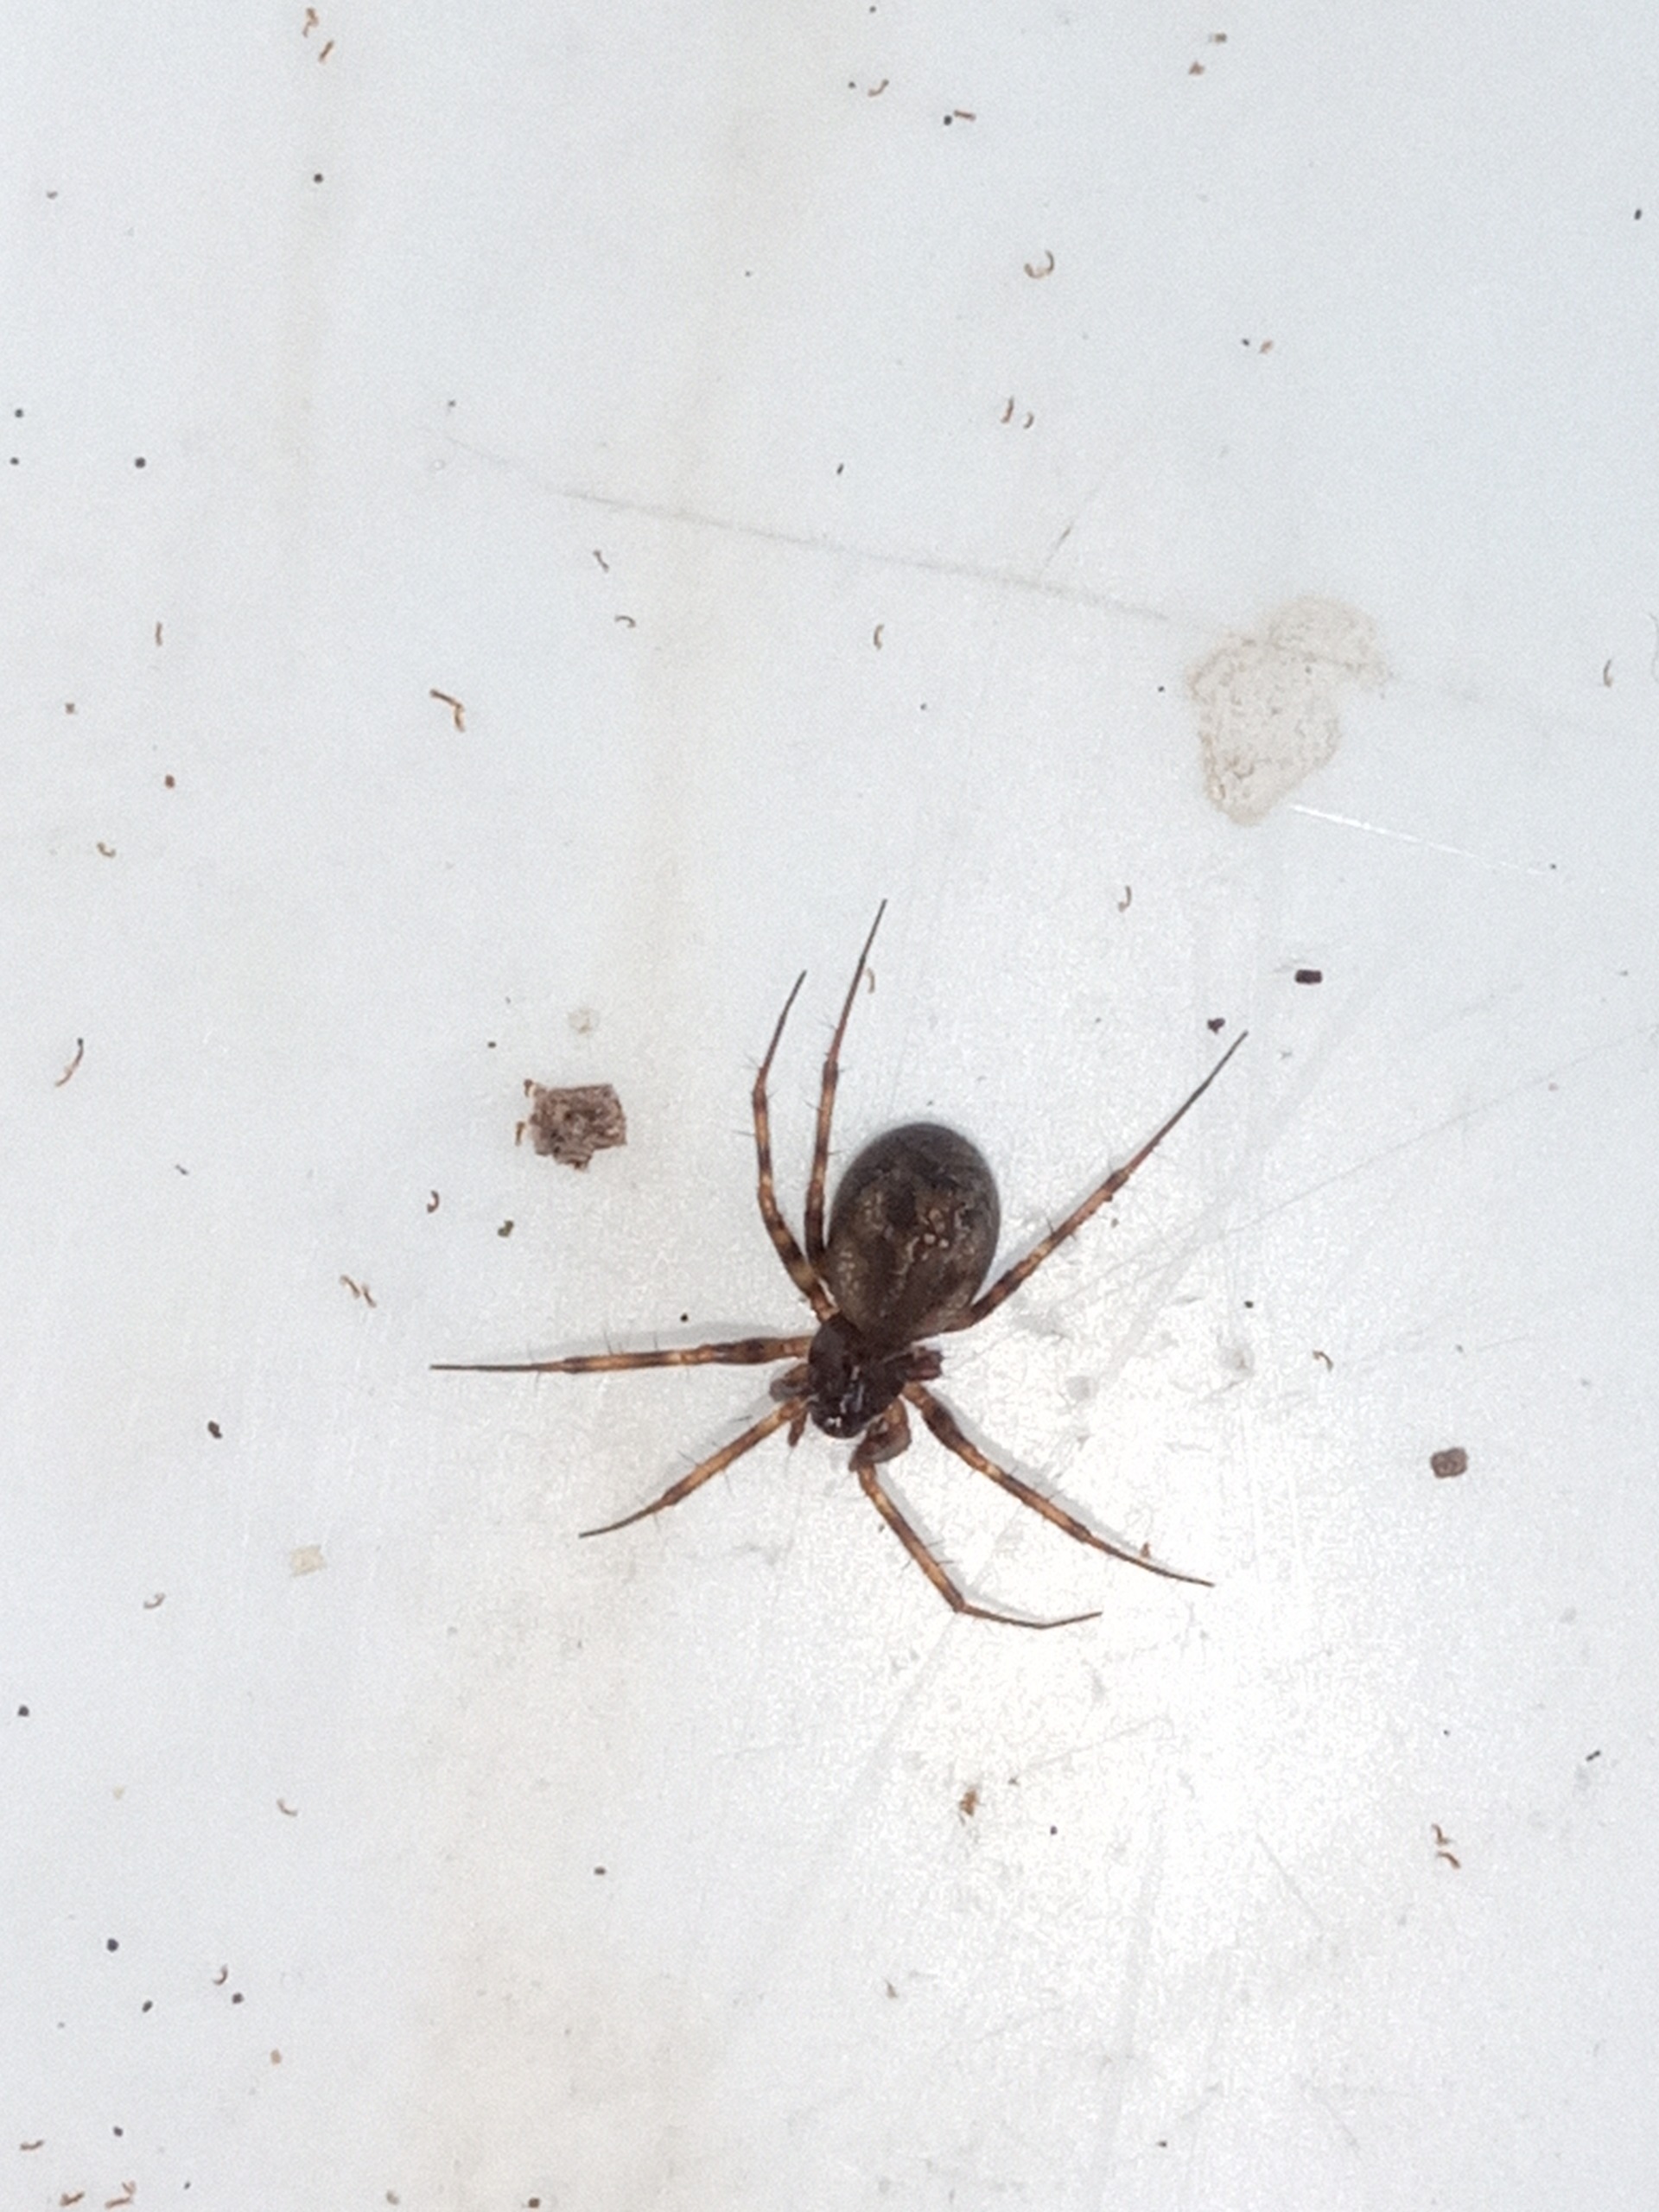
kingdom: Animalia
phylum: Arthropoda
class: Arachnida
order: Araneae
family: Linyphiidae
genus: Lepthyphantes
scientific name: Lepthyphantes minutus
